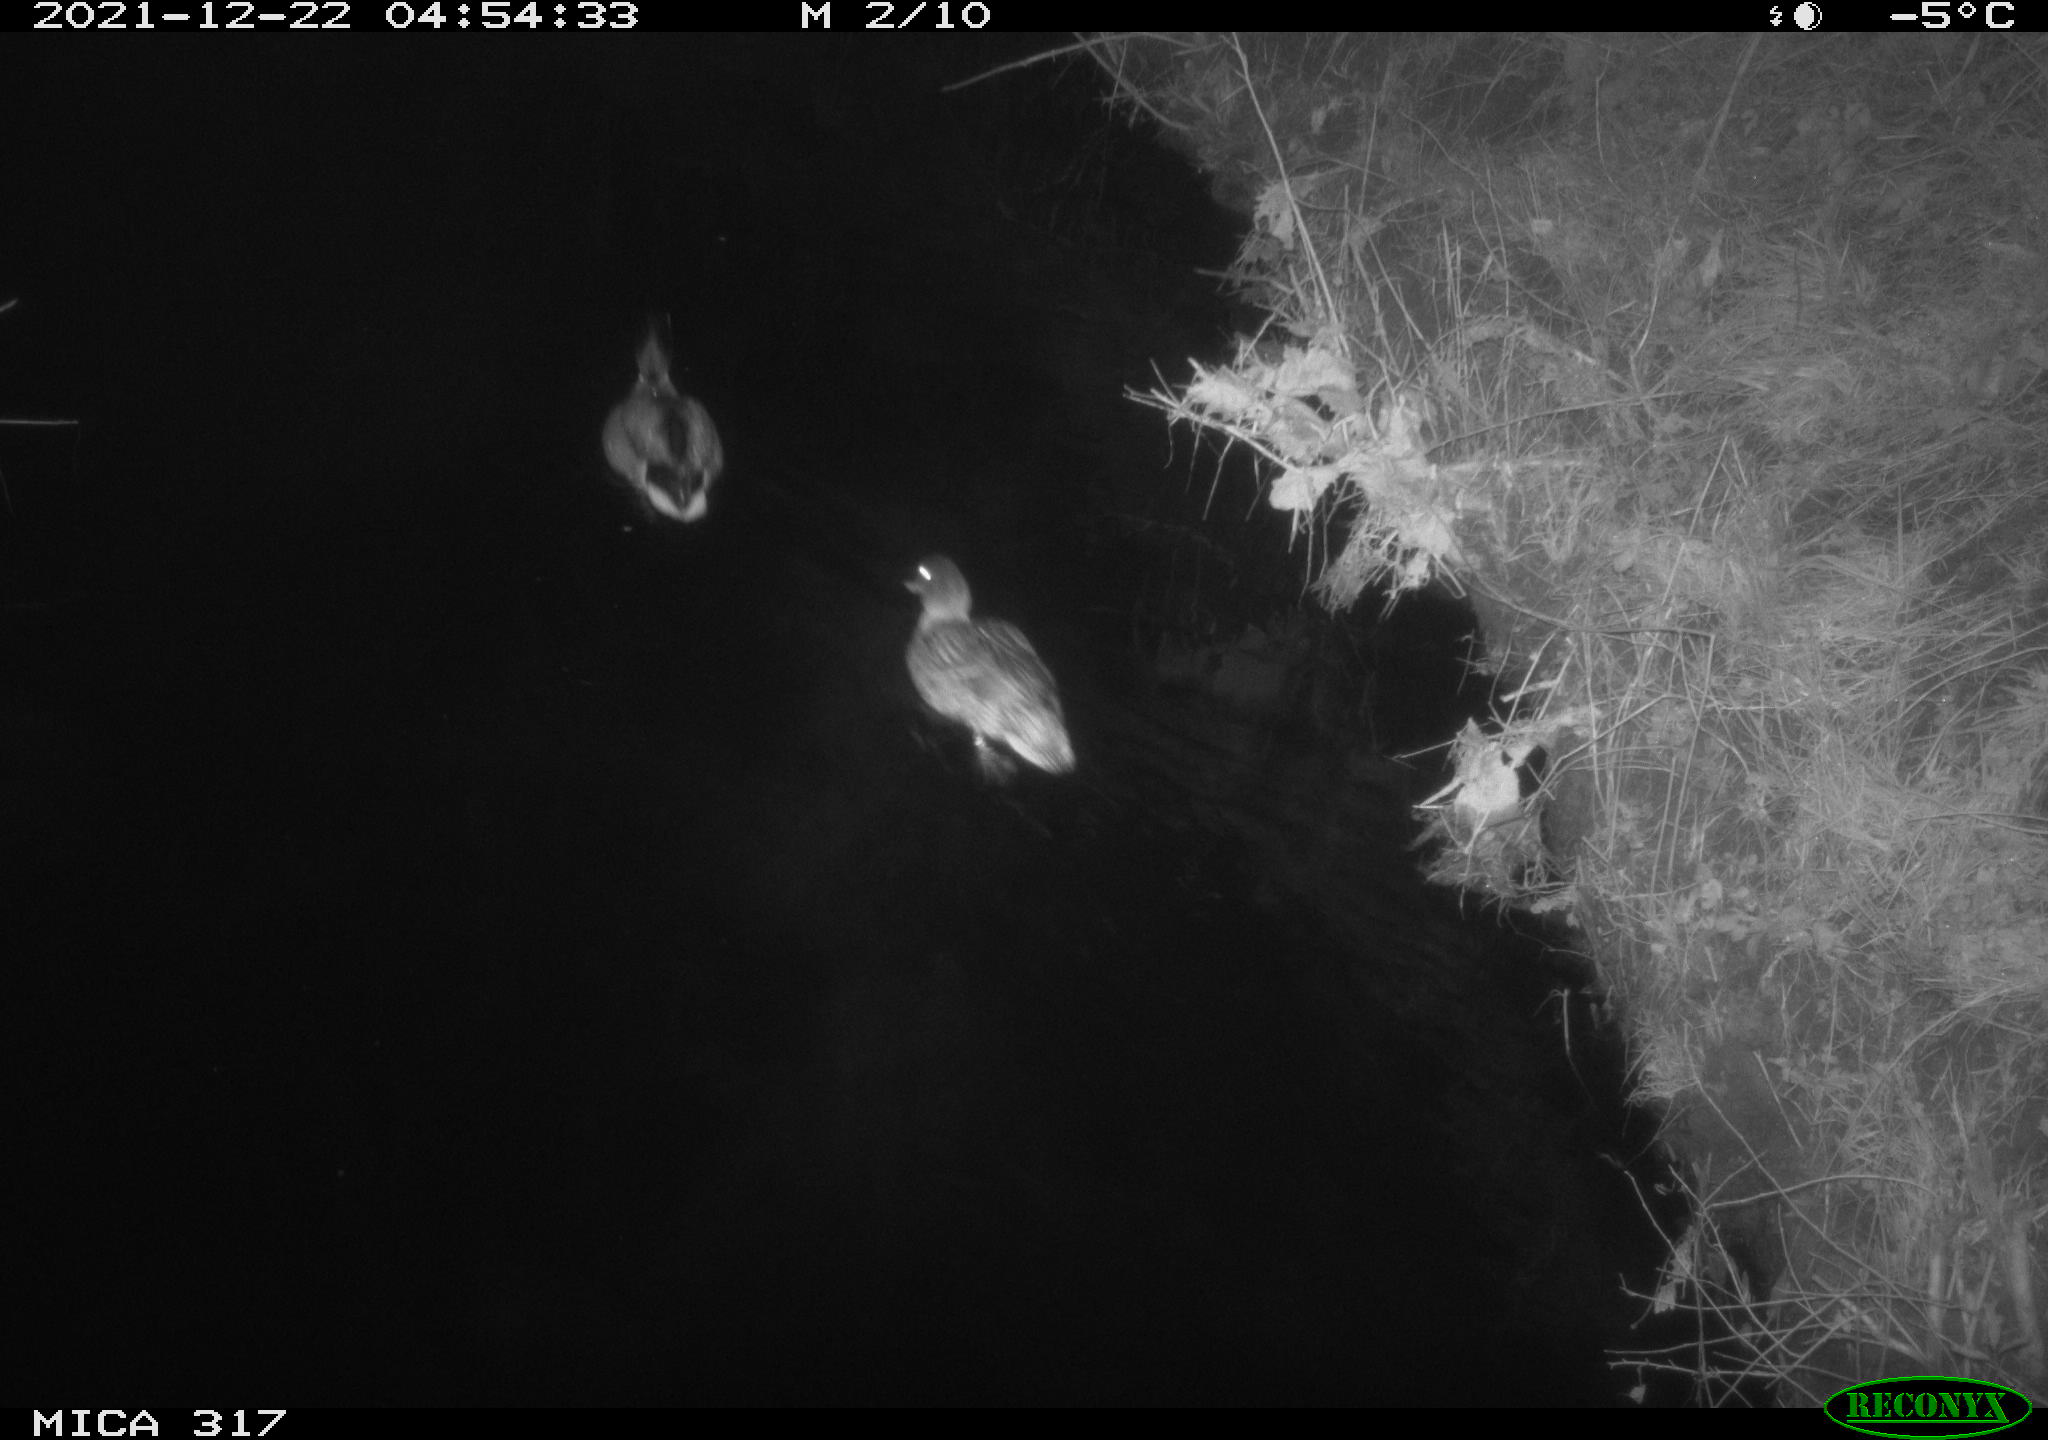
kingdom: Animalia
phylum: Chordata
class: Aves
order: Anseriformes
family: Anatidae
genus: Anas
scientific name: Anas platyrhynchos
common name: Mallard
